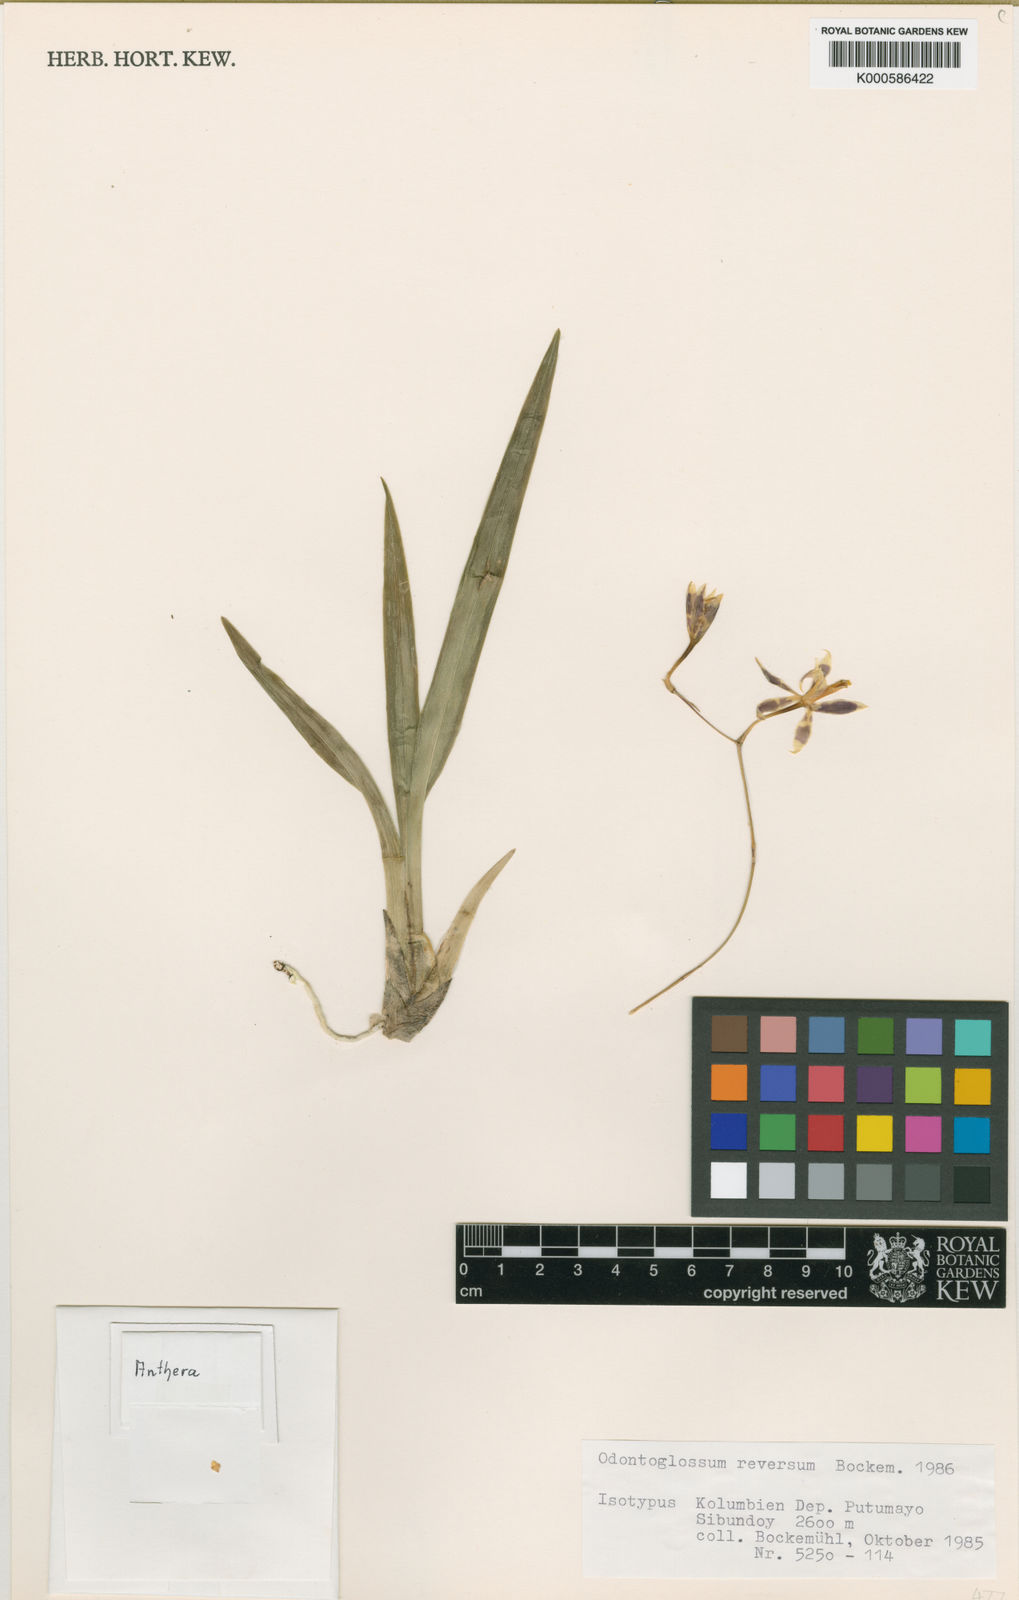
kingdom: Plantae
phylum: Tracheophyta
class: Liliopsida
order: Asparagales
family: Orchidaceae
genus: Oncidium
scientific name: Oncidium reversoides
